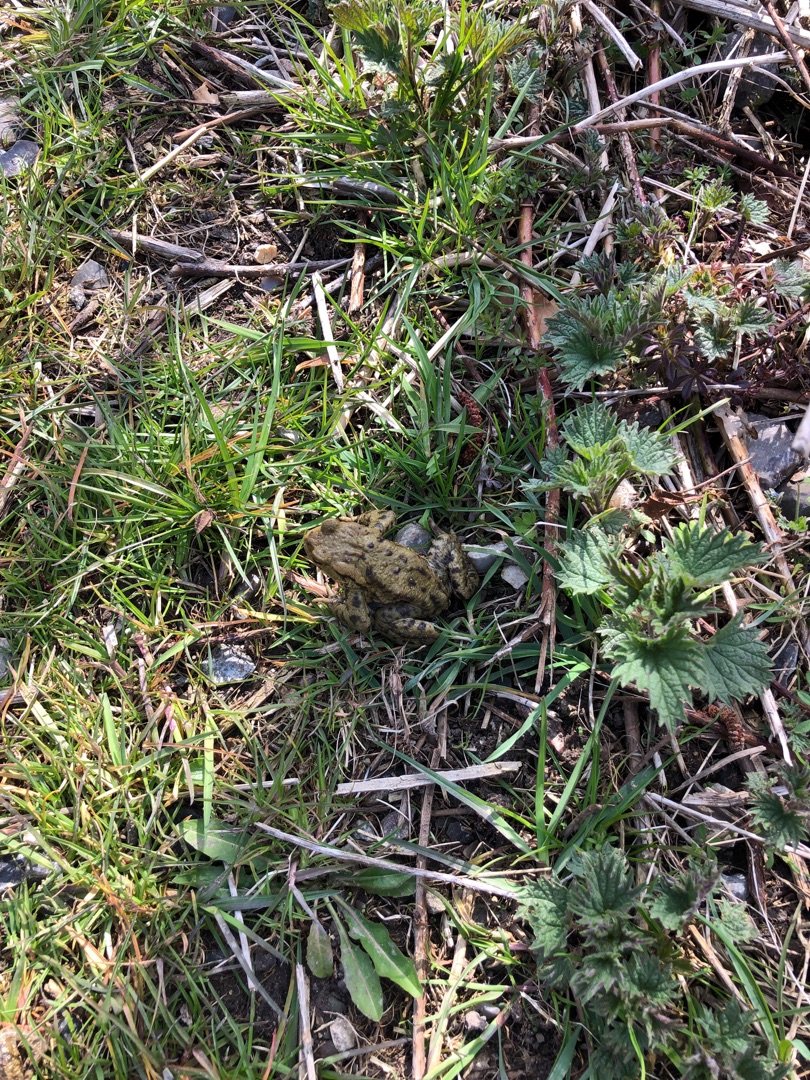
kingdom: Animalia
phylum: Chordata
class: Amphibia
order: Anura
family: Bufonidae
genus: Bufo
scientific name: Bufo bufo
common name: Skrubtudse
